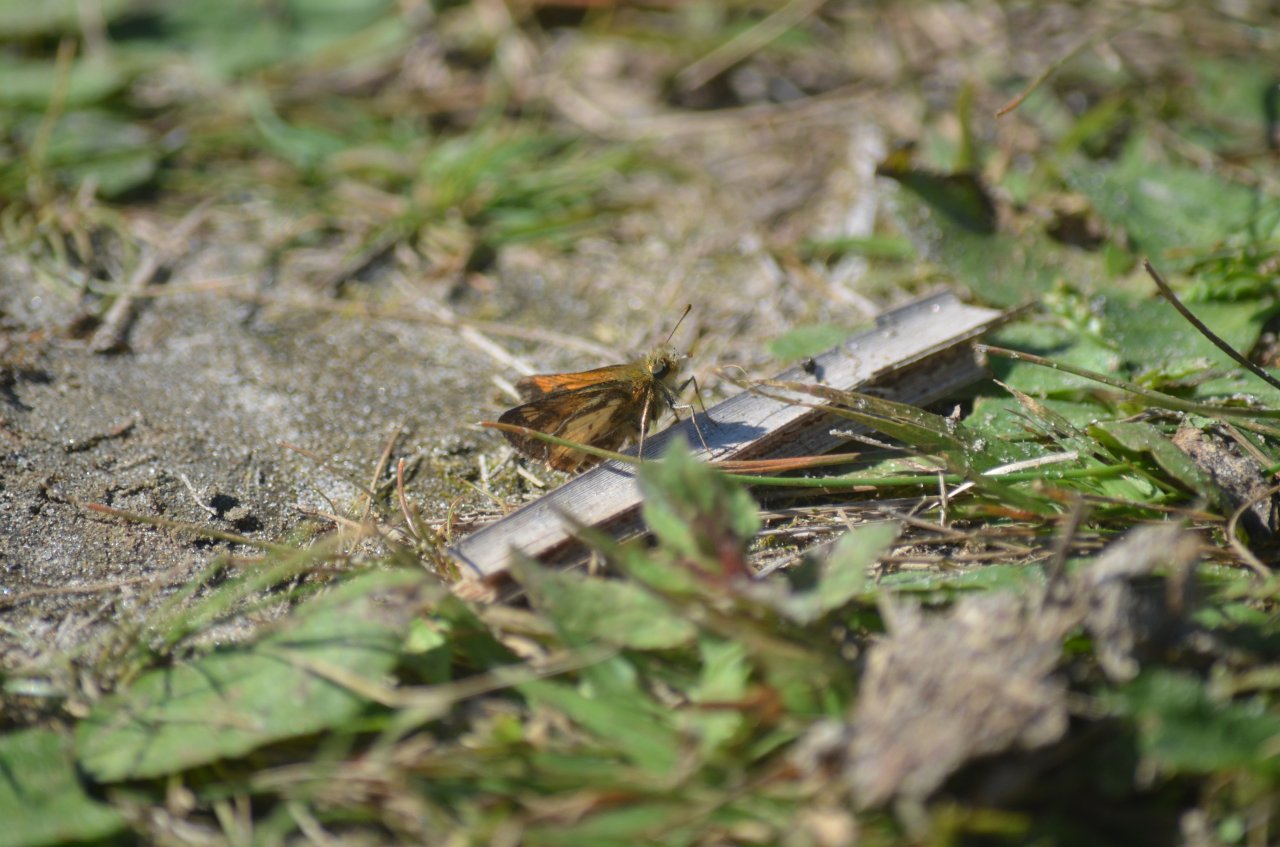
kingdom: Animalia
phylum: Arthropoda
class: Insecta
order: Lepidoptera
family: Hesperiidae
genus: Polites
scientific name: Polites coras
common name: Peck's Skipper
